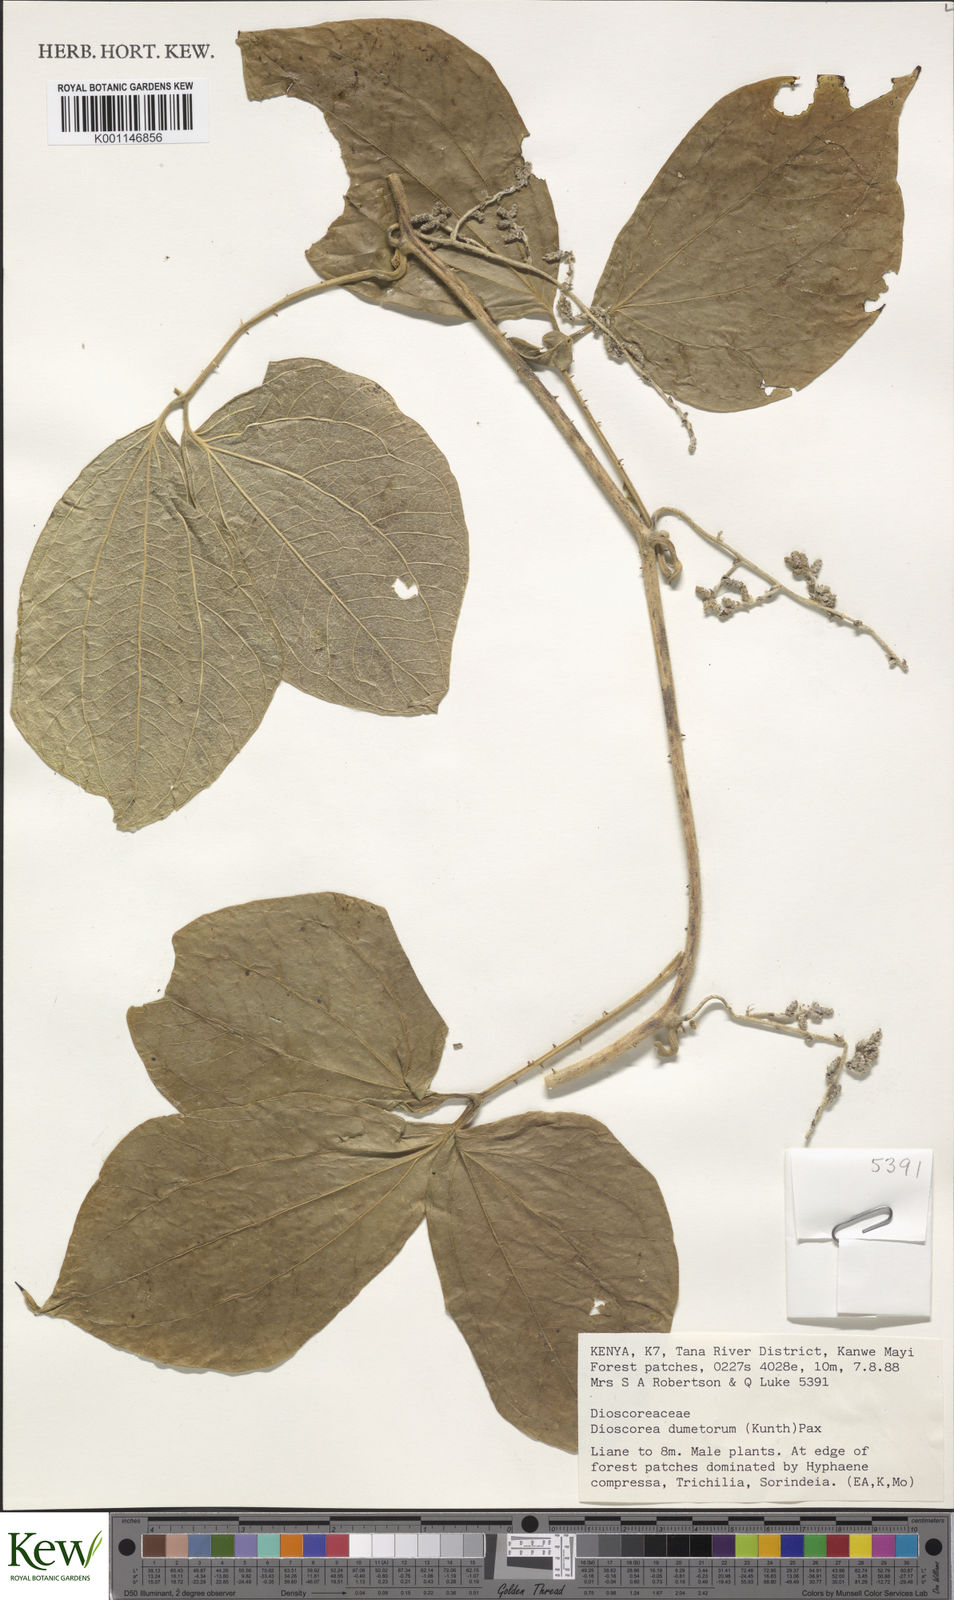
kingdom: Plantae
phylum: Tracheophyta
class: Liliopsida
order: Dioscoreales
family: Dioscoreaceae
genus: Dioscorea
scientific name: Dioscorea dumetorum
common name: African bitter yam
